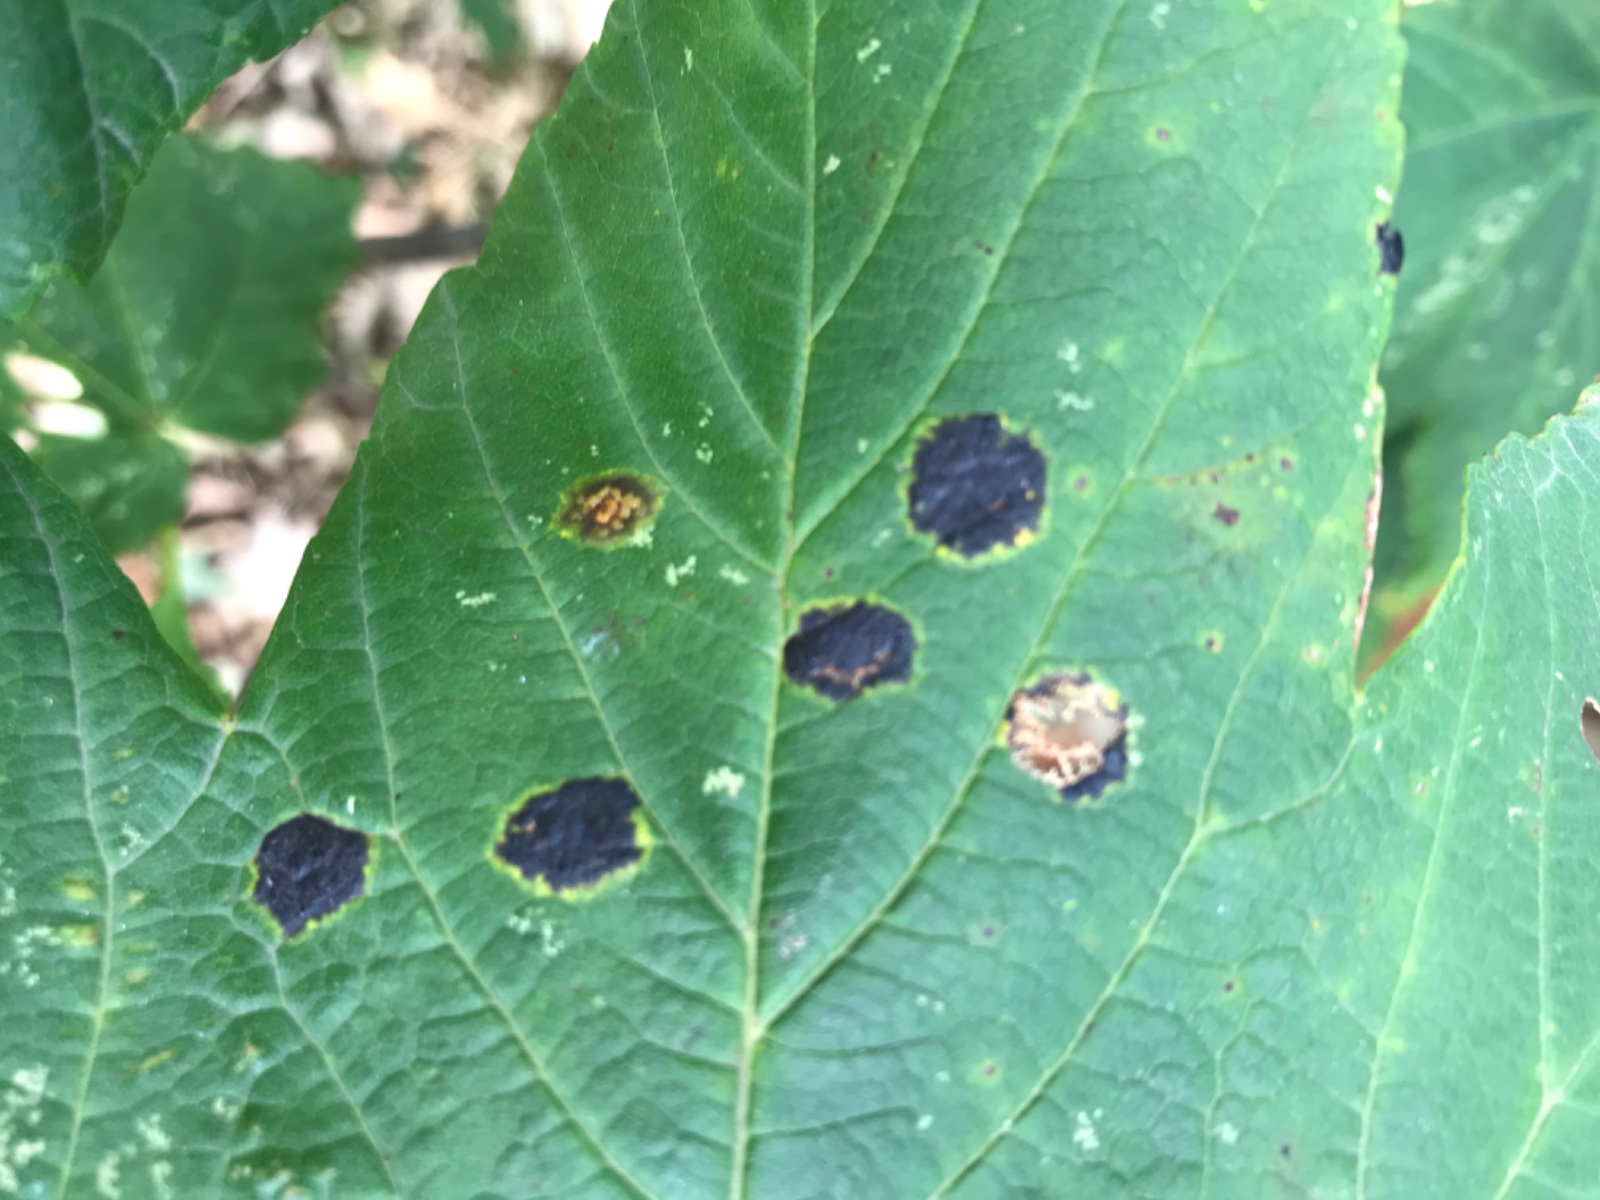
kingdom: Fungi
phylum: Ascomycota
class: Leotiomycetes
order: Rhytismatales
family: Rhytismataceae
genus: Rhytisma
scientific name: Rhytisma acerinum
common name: ahorn-rynkeplet
